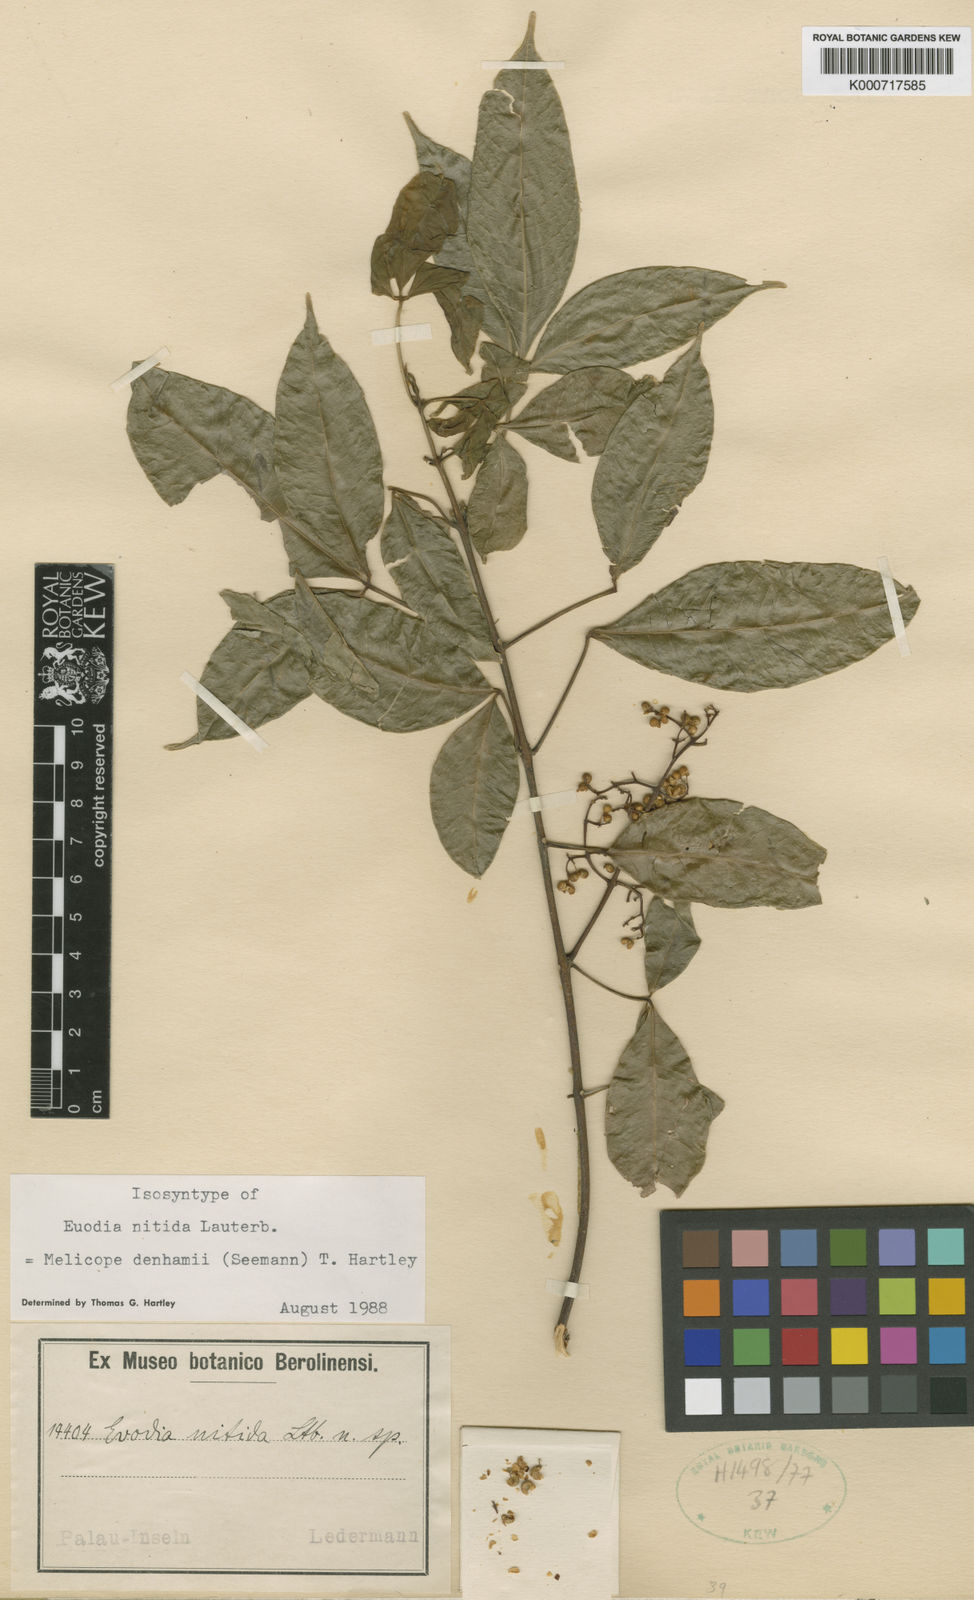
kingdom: Plantae
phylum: Tracheophyta
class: Magnoliopsida
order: Sapindales
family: Rutaceae
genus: Melicope
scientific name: Melicope denhamii
